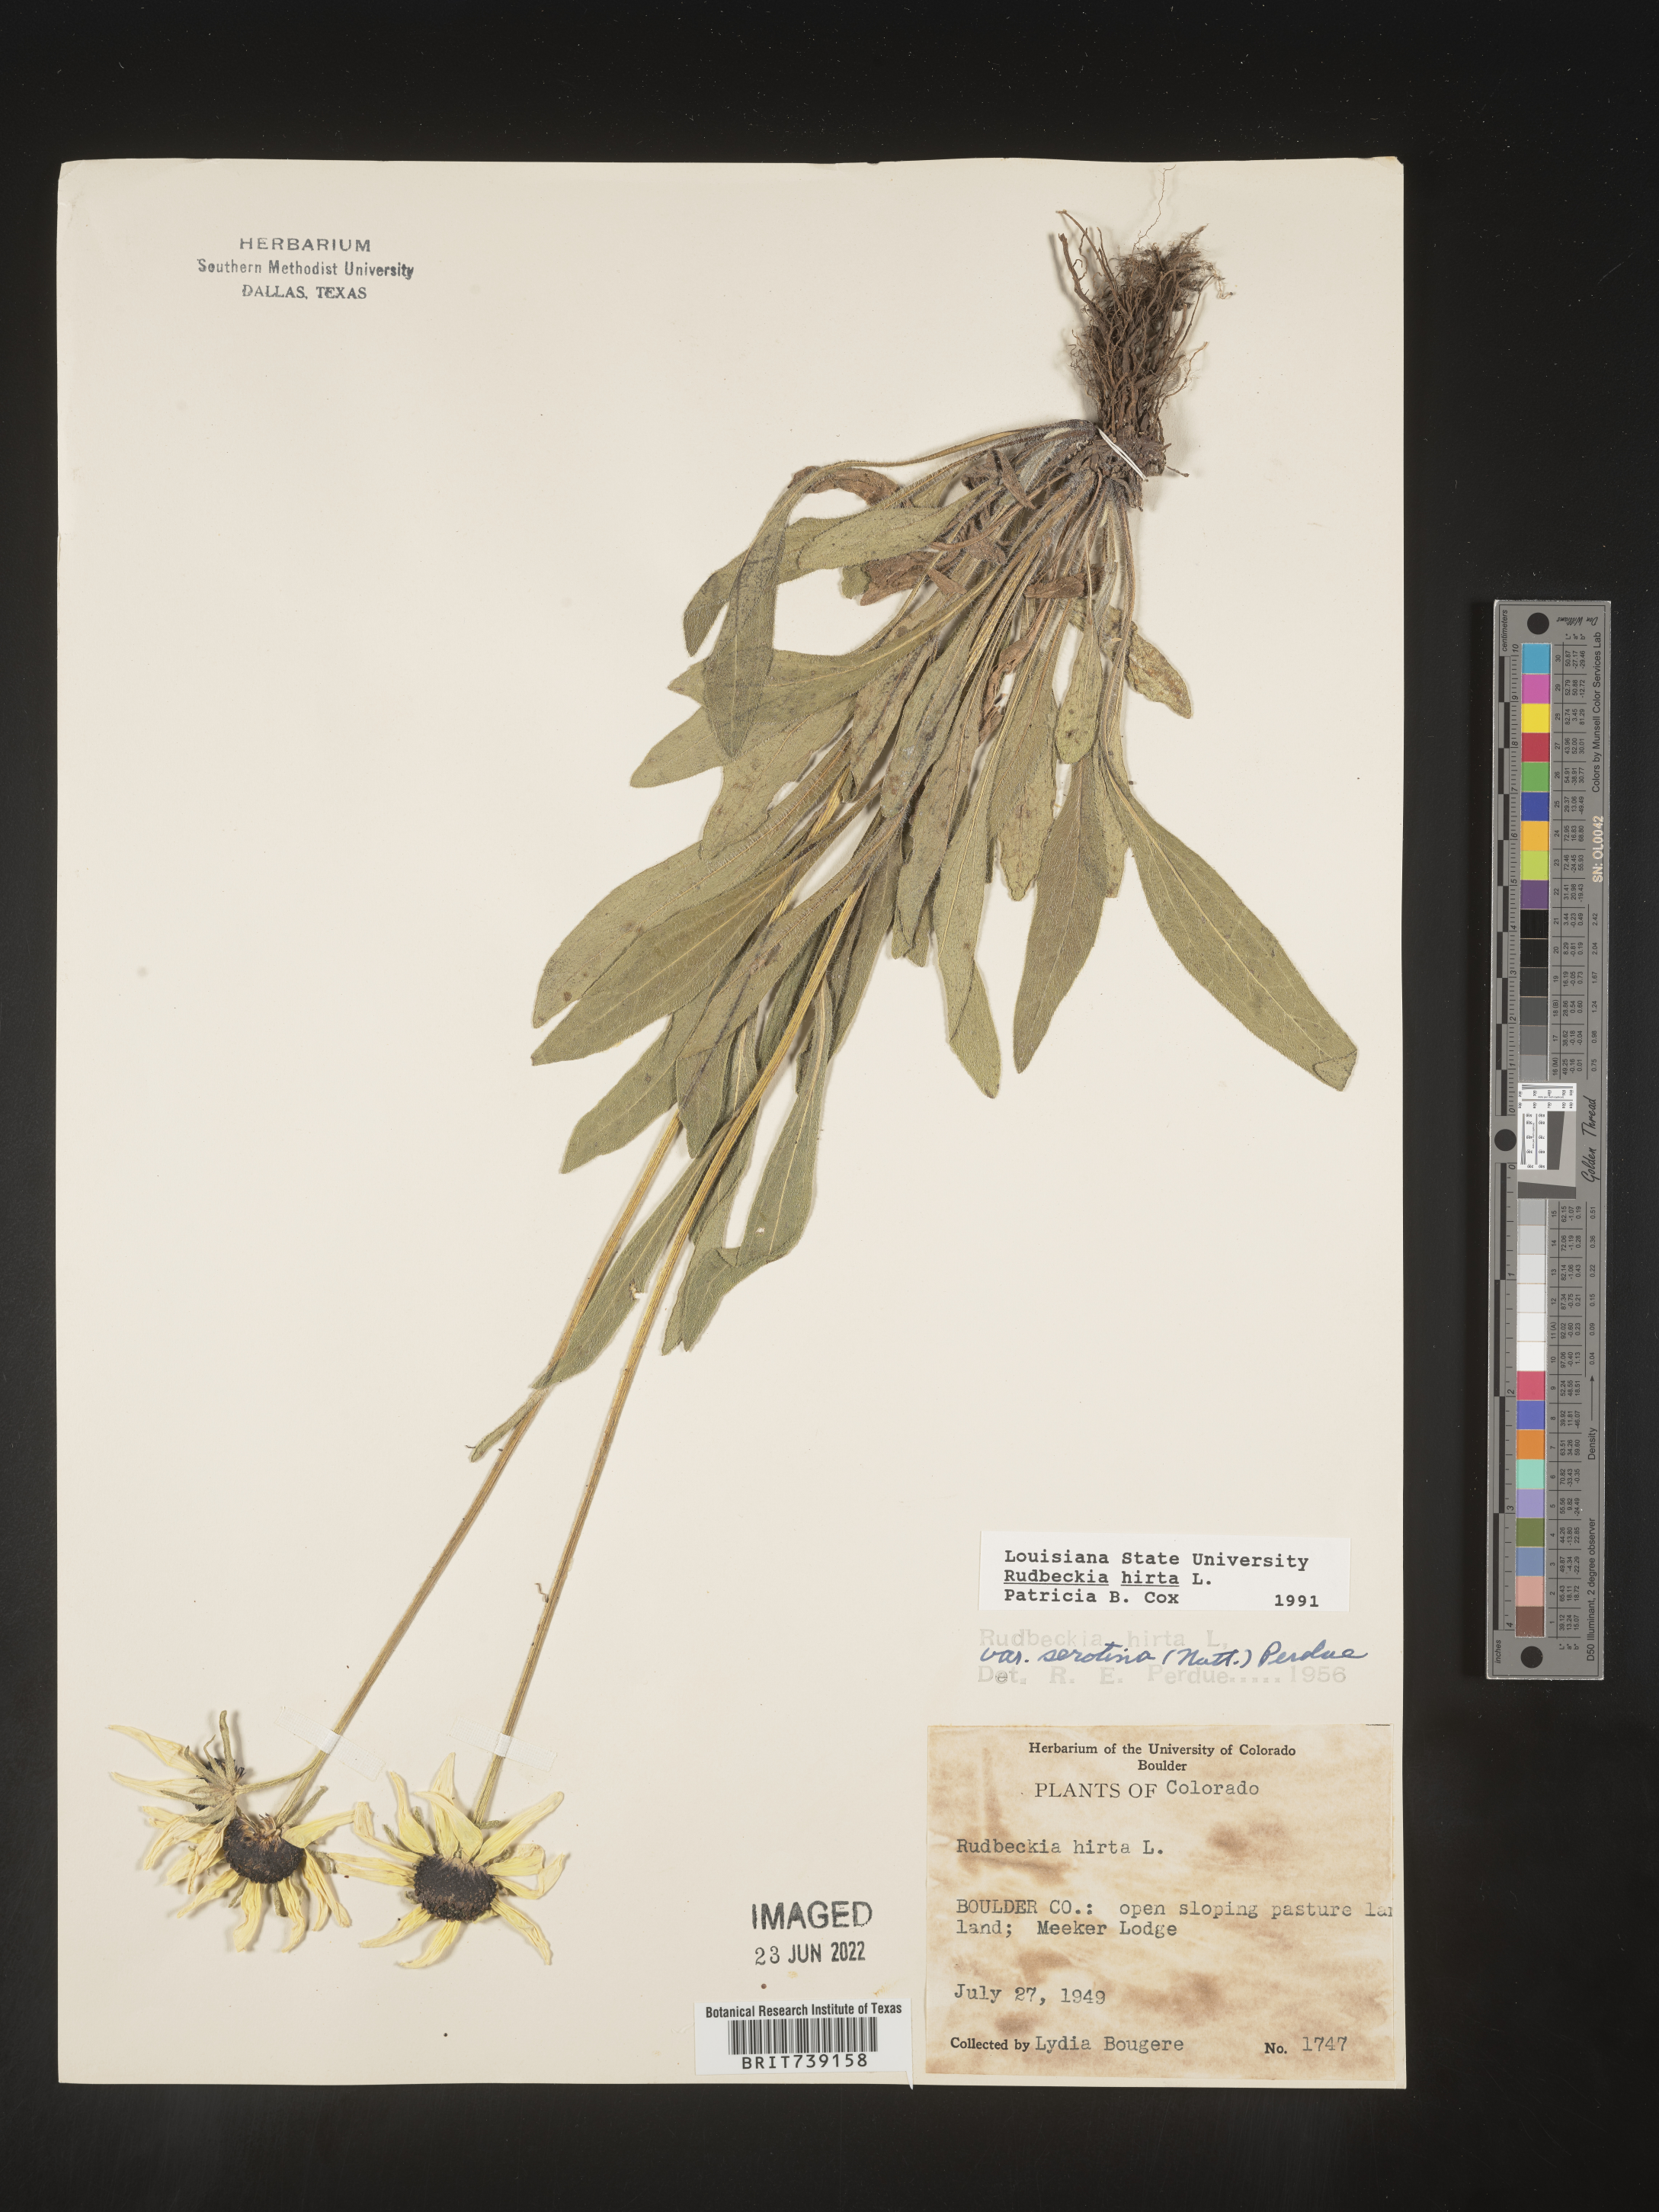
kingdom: Plantae
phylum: Tracheophyta
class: Magnoliopsida
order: Asterales
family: Asteraceae
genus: Rudbeckia
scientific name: Rudbeckia hirta
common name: Black-eyed-susan
